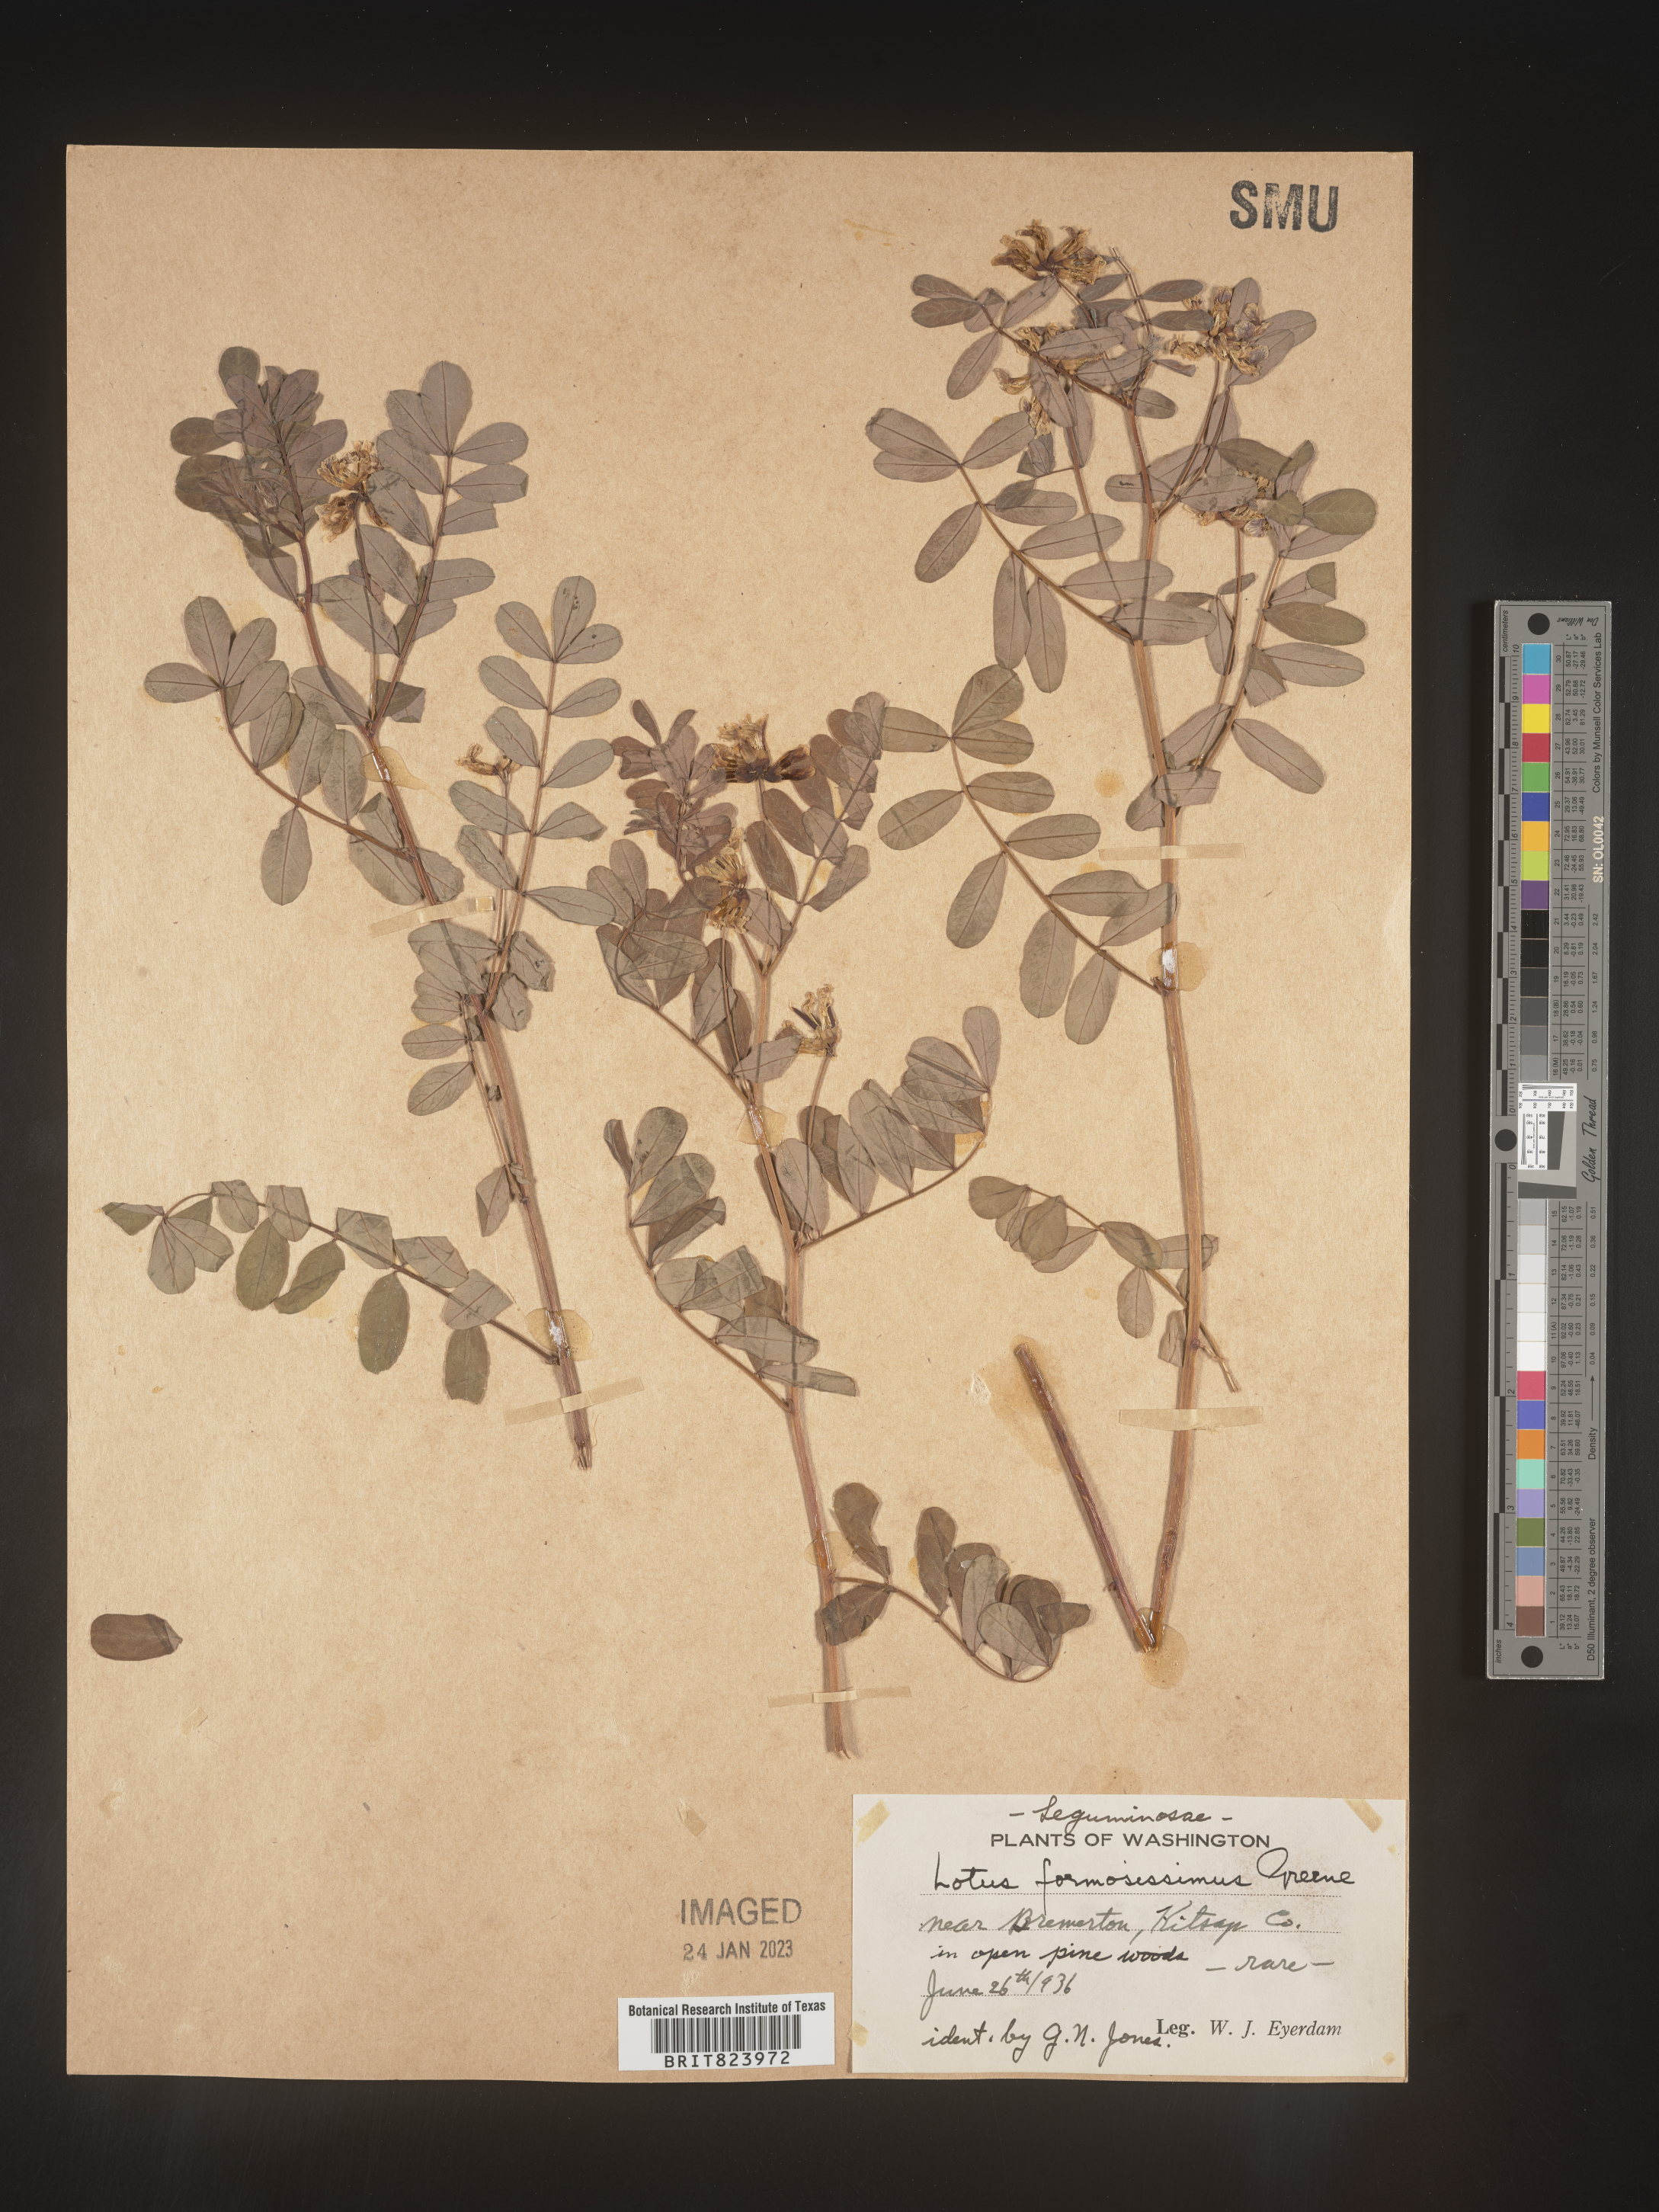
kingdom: Plantae
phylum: Tracheophyta
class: Magnoliopsida
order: Fabales
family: Fabaceae
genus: Lotus
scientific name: Lotus
